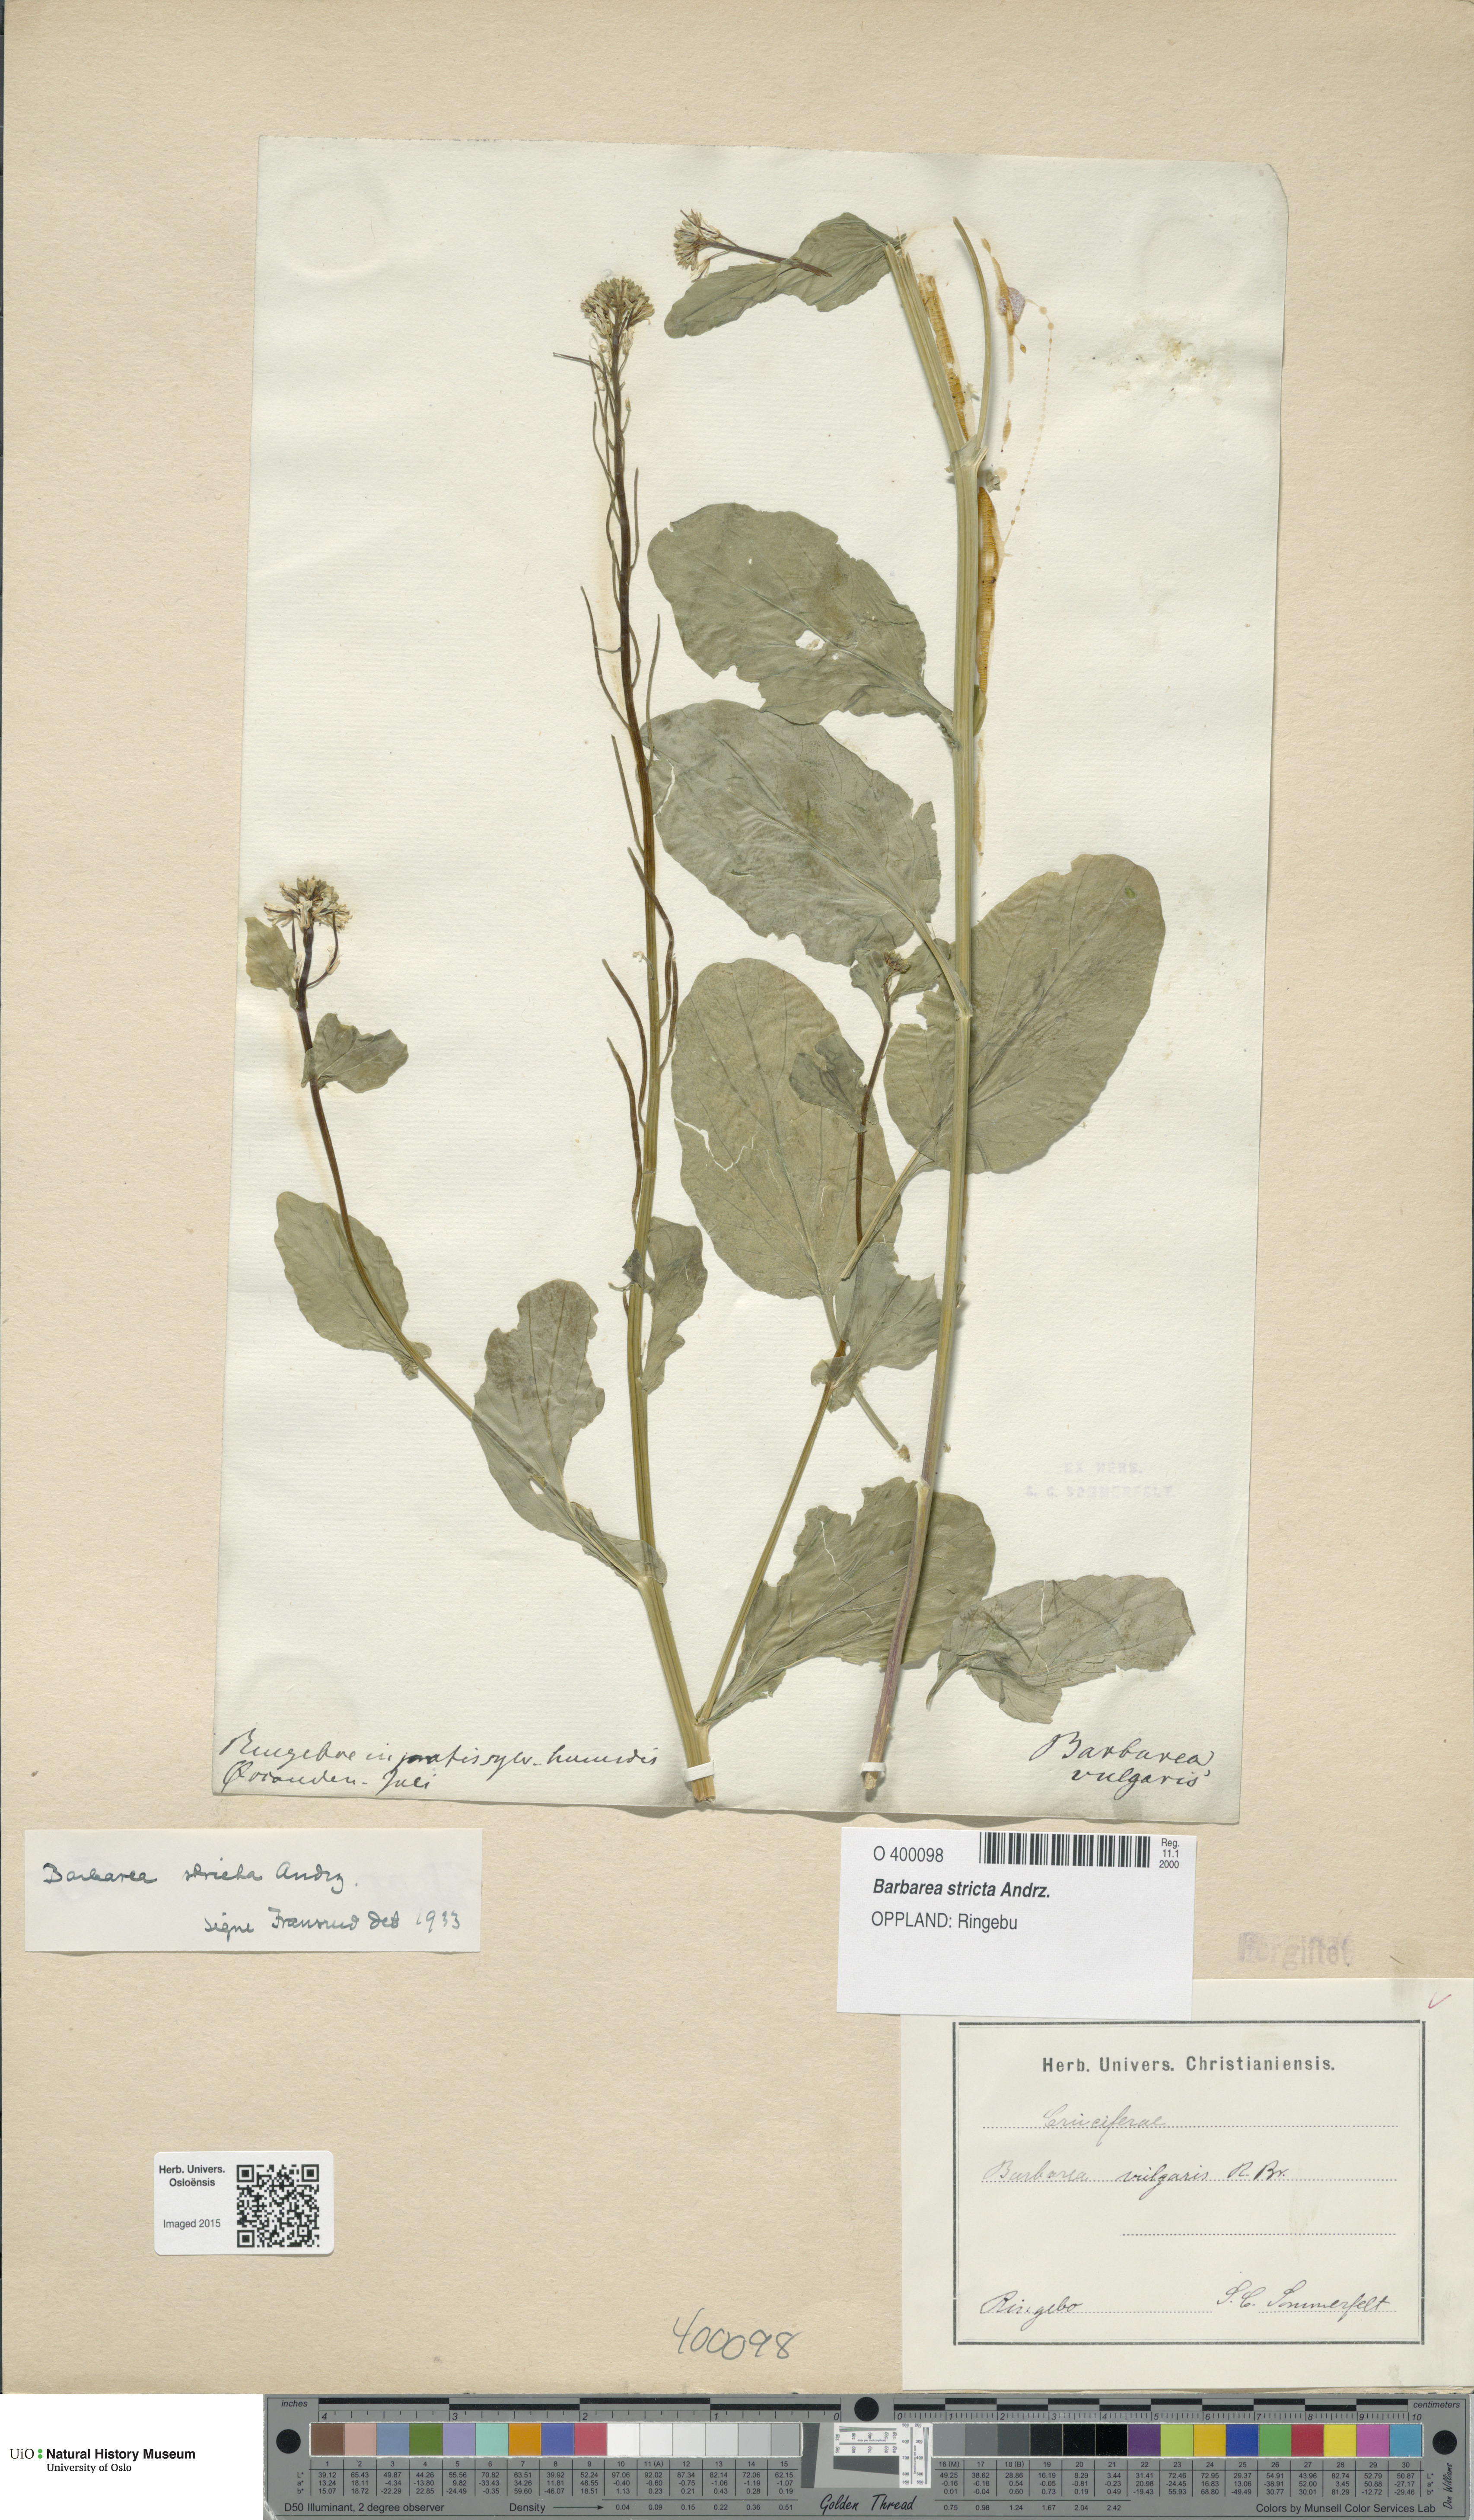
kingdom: Plantae
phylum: Tracheophyta
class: Magnoliopsida
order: Brassicales
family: Brassicaceae
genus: Barbarea
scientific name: Barbarea stricta
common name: Small-flowered winter-cress
